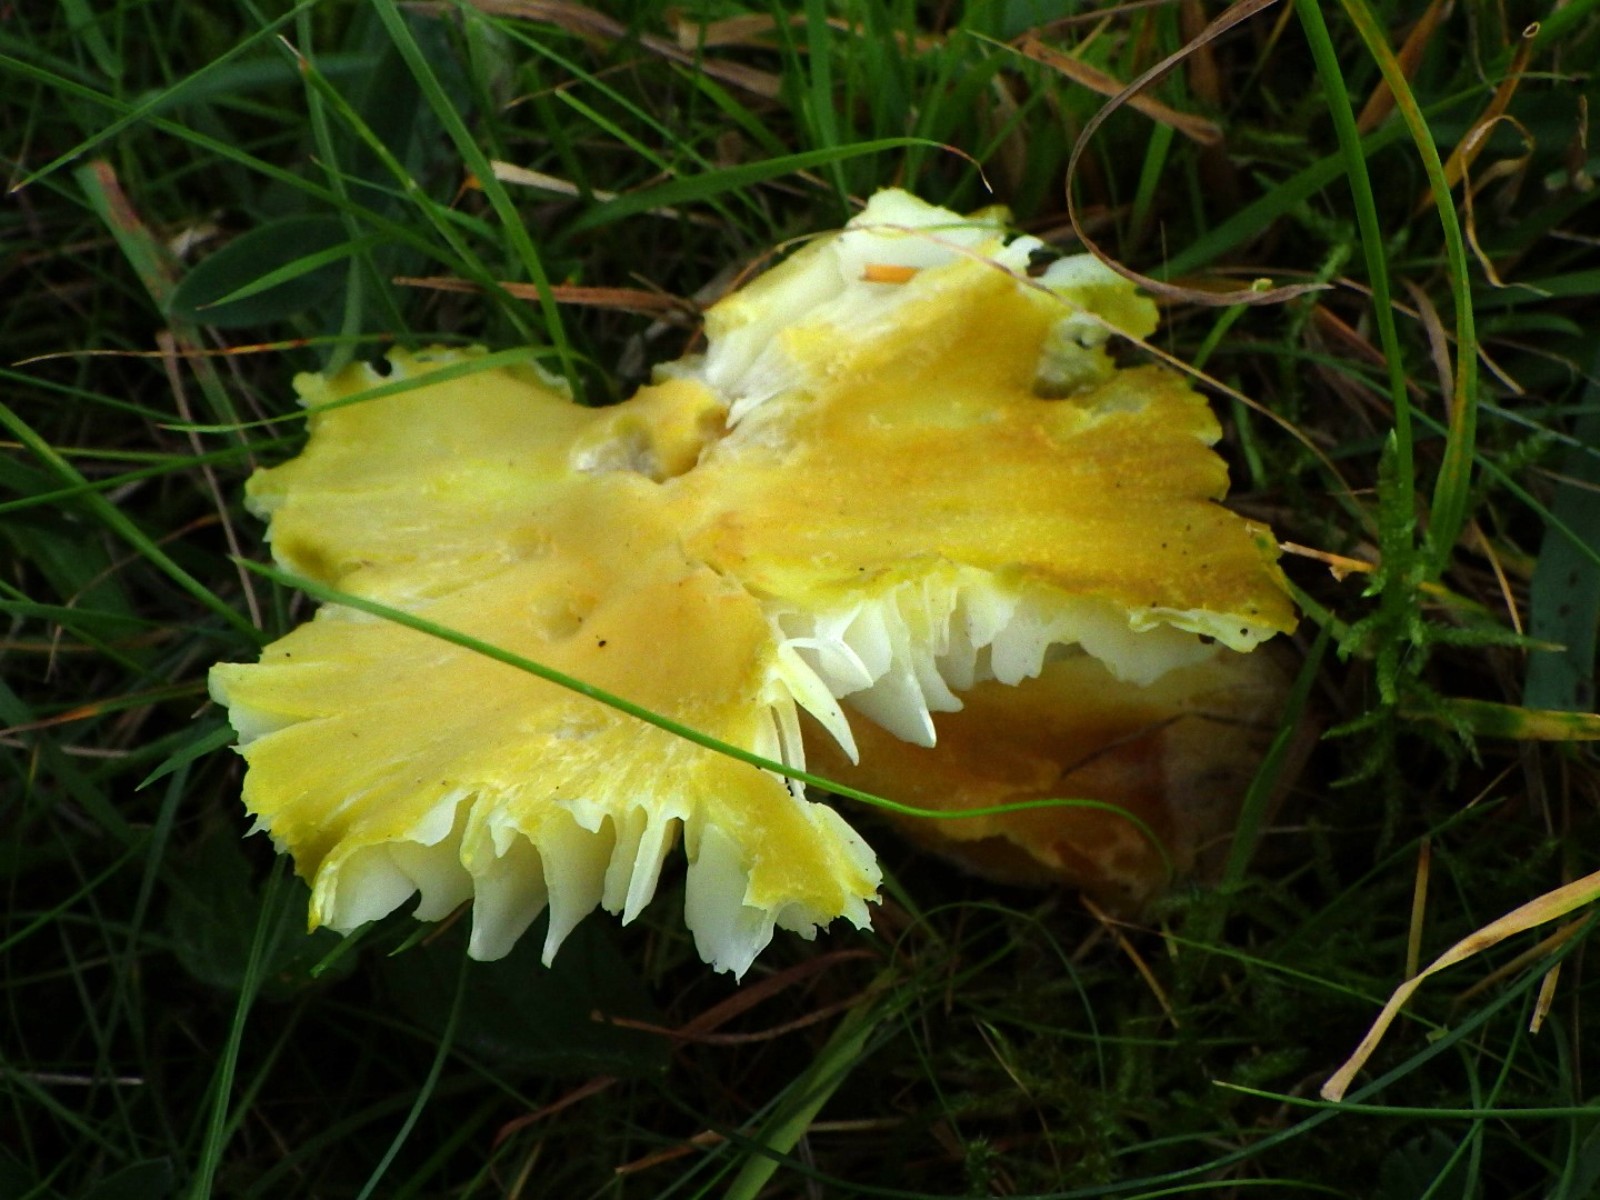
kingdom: Fungi
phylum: Basidiomycota
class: Agaricomycetes
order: Agaricales
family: Hygrophoraceae
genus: Hygrocybe
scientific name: Hygrocybe citrinovirens
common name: grøngul vokshat
